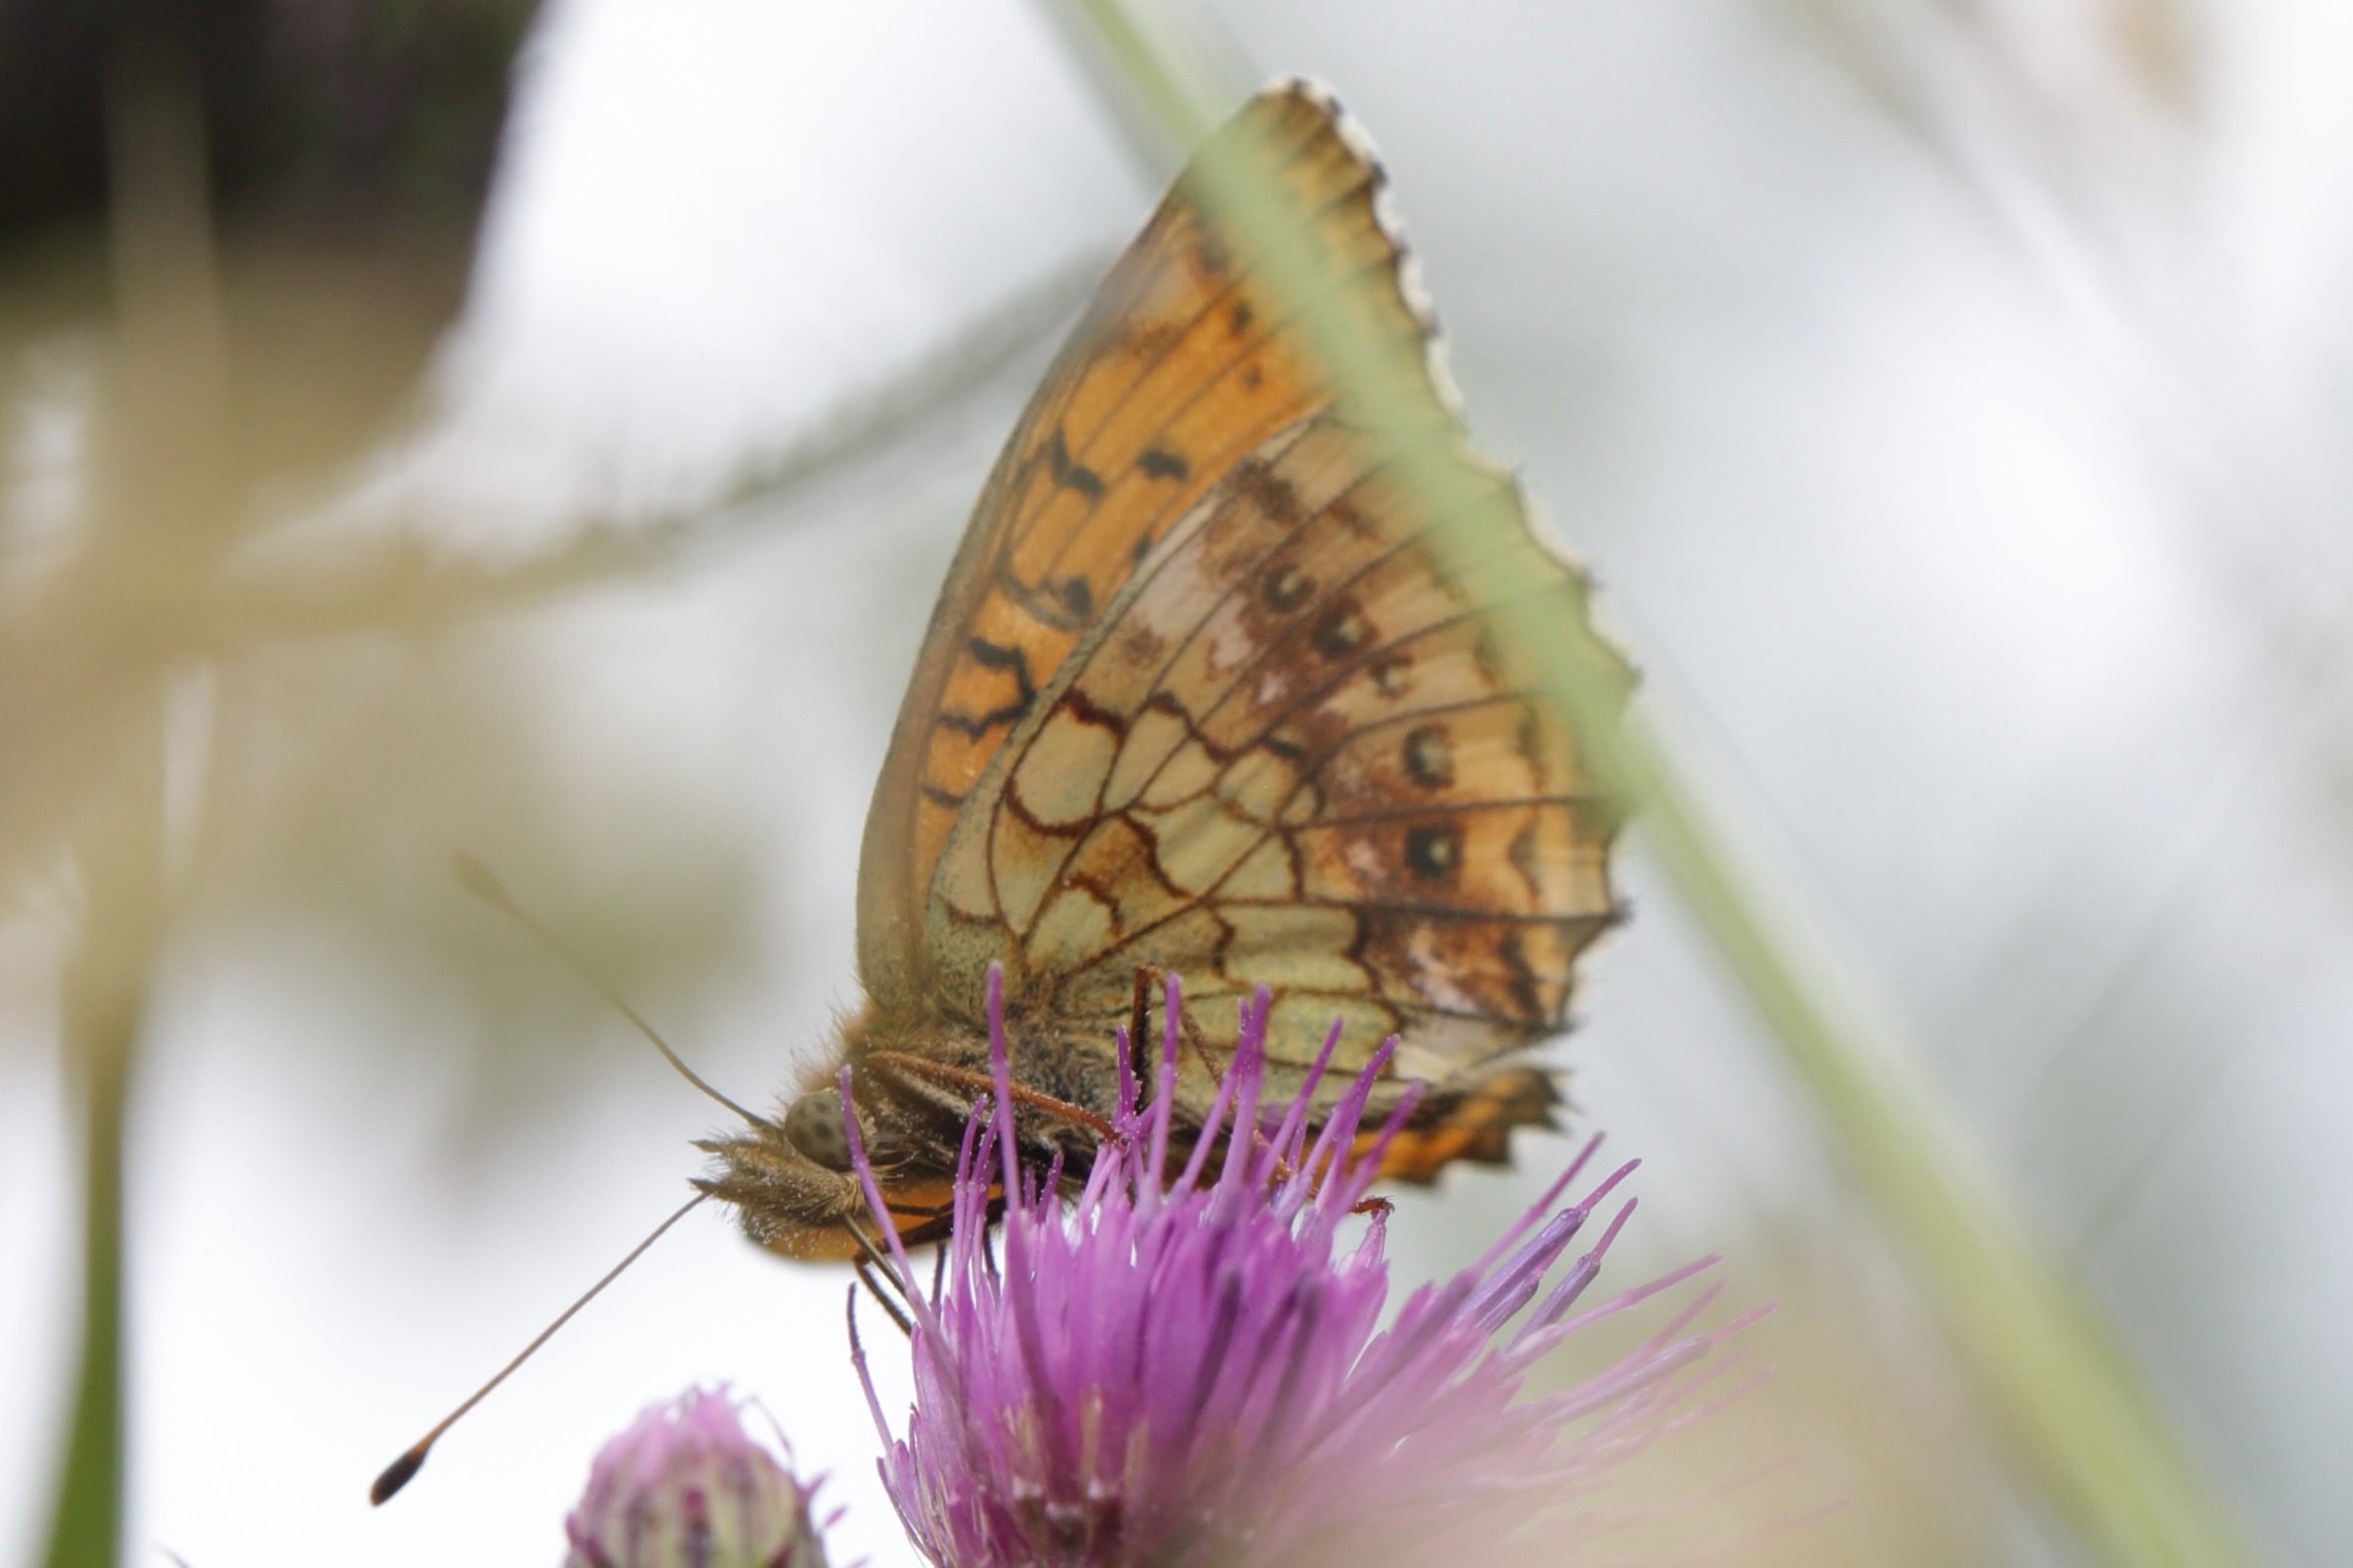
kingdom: Animalia
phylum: Arthropoda
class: Insecta
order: Lepidoptera
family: Nymphalidae
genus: Brenthis
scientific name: Brenthis ino
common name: Engperlemorsommerfugl
